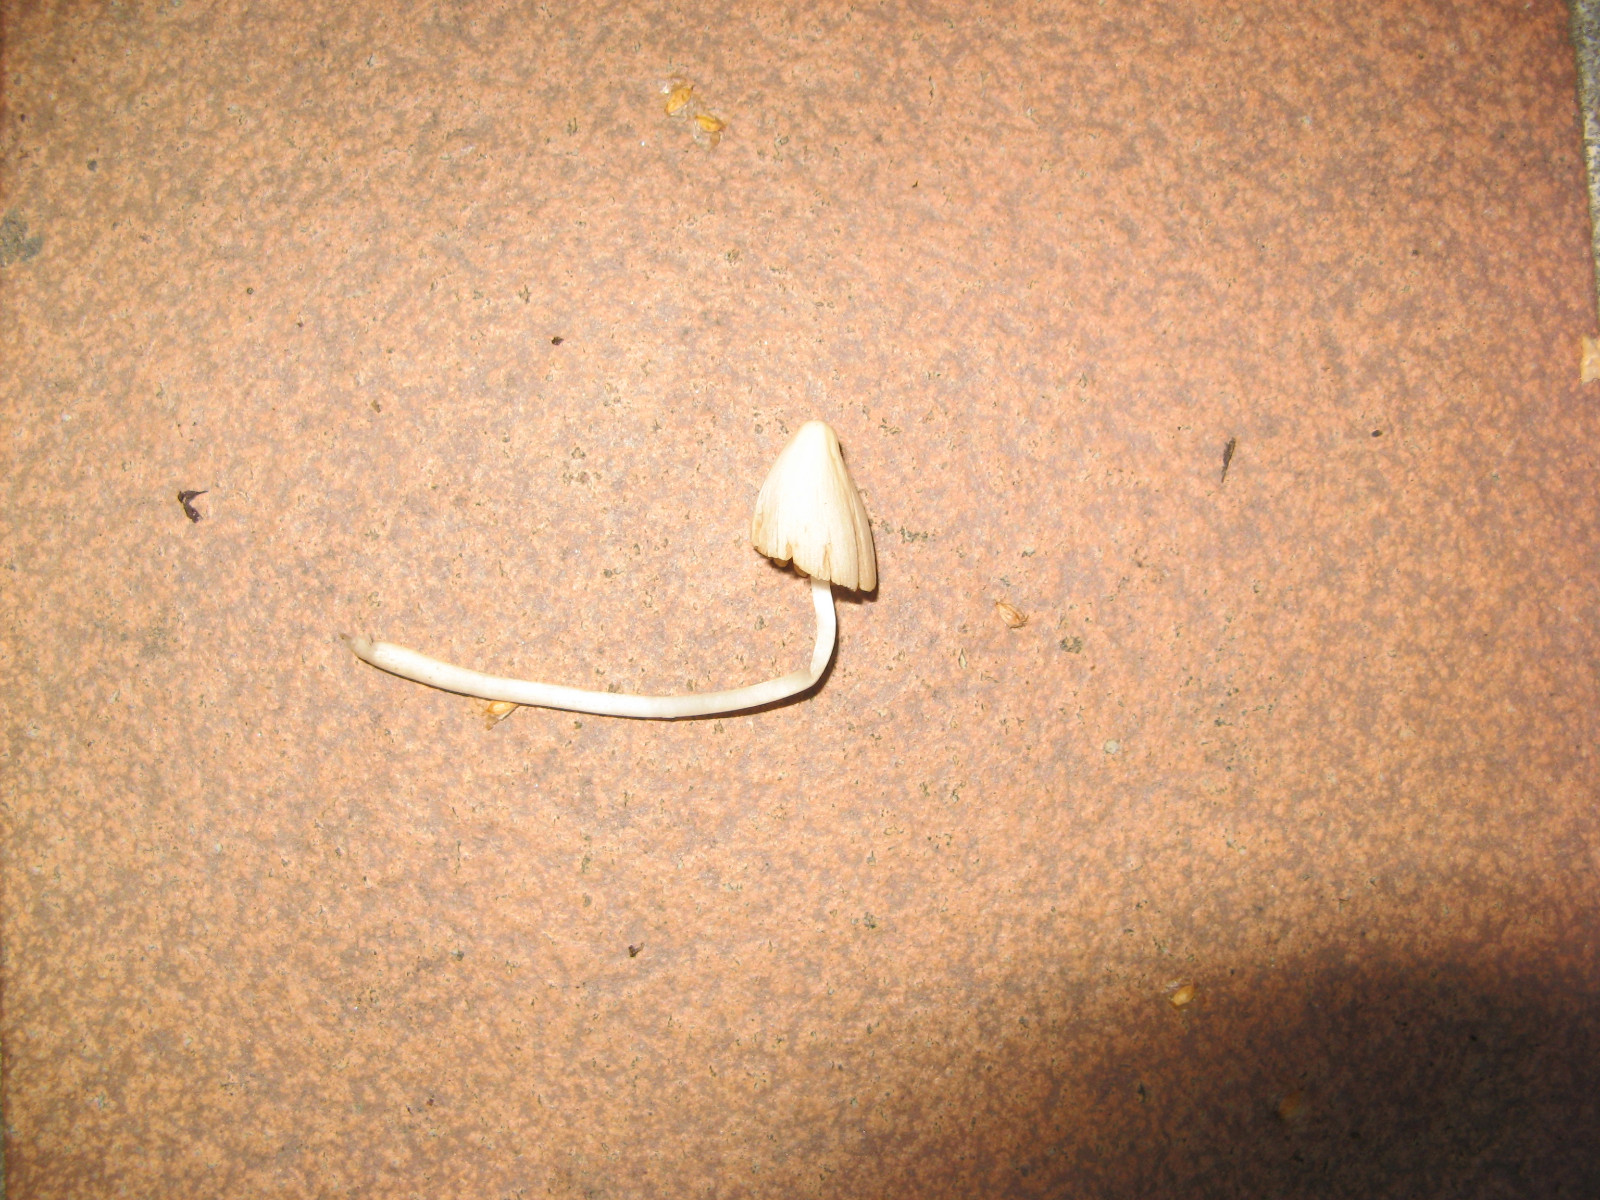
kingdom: Fungi
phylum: Basidiomycota
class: Agaricomycetes
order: Agaricales
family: Bolbitiaceae
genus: Conocybe
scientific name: Conocybe apala
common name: mælkehvid keglehat
